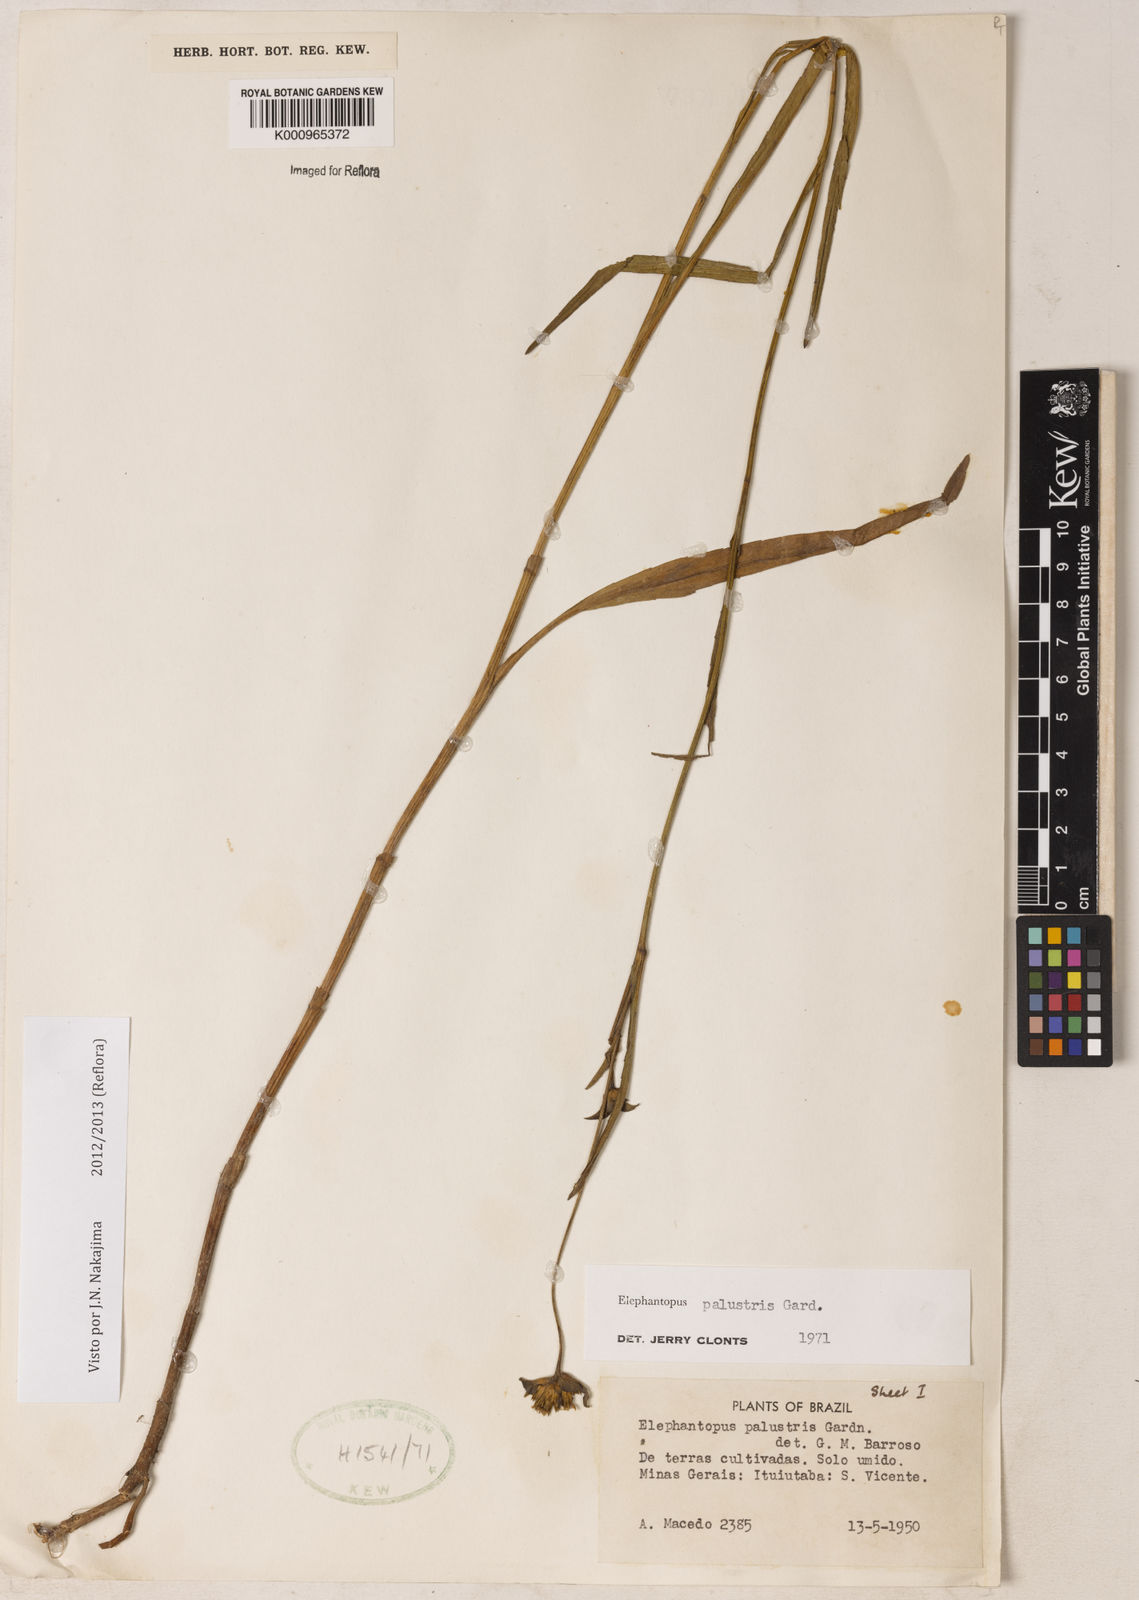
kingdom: Plantae
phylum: Tracheophyta
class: Magnoliopsida
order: Asterales
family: Asteraceae
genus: Elephantopus
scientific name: Elephantopus palustris
